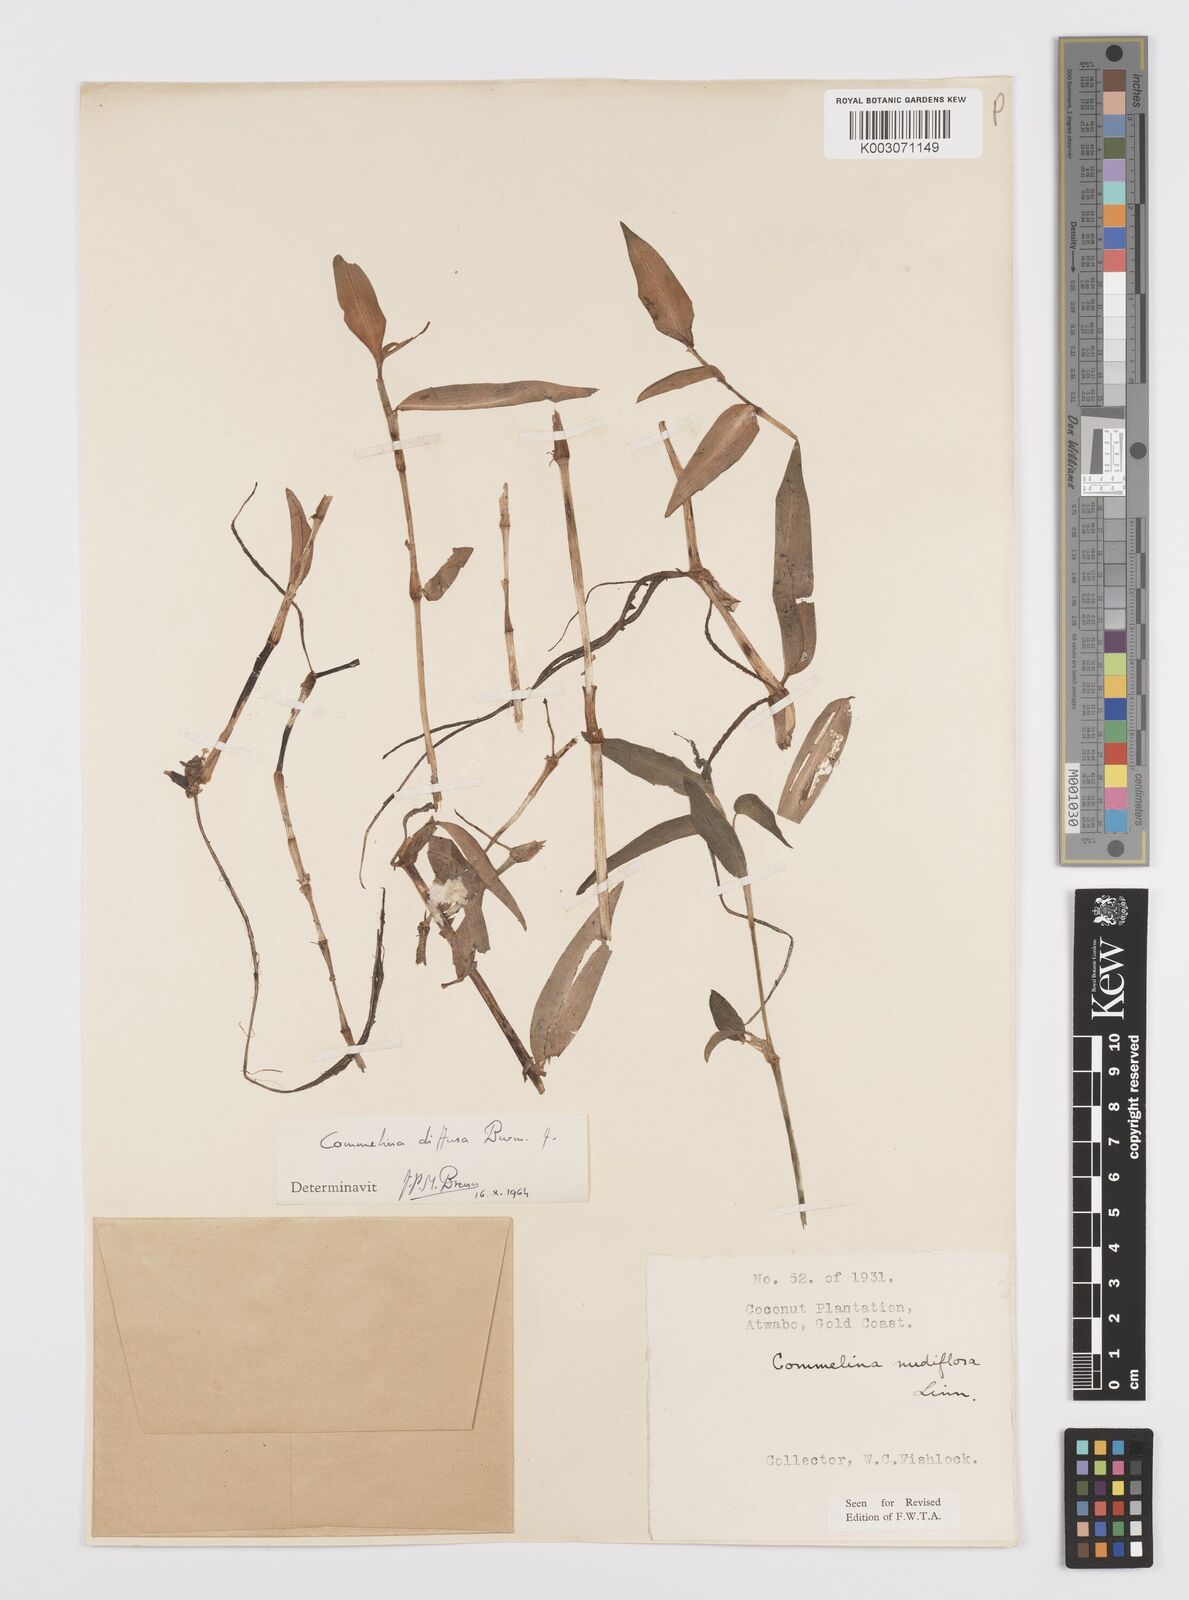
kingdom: Plantae
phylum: Tracheophyta
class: Liliopsida
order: Commelinales
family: Commelinaceae
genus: Commelina
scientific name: Commelina diffusa
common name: Climbing dayflower
